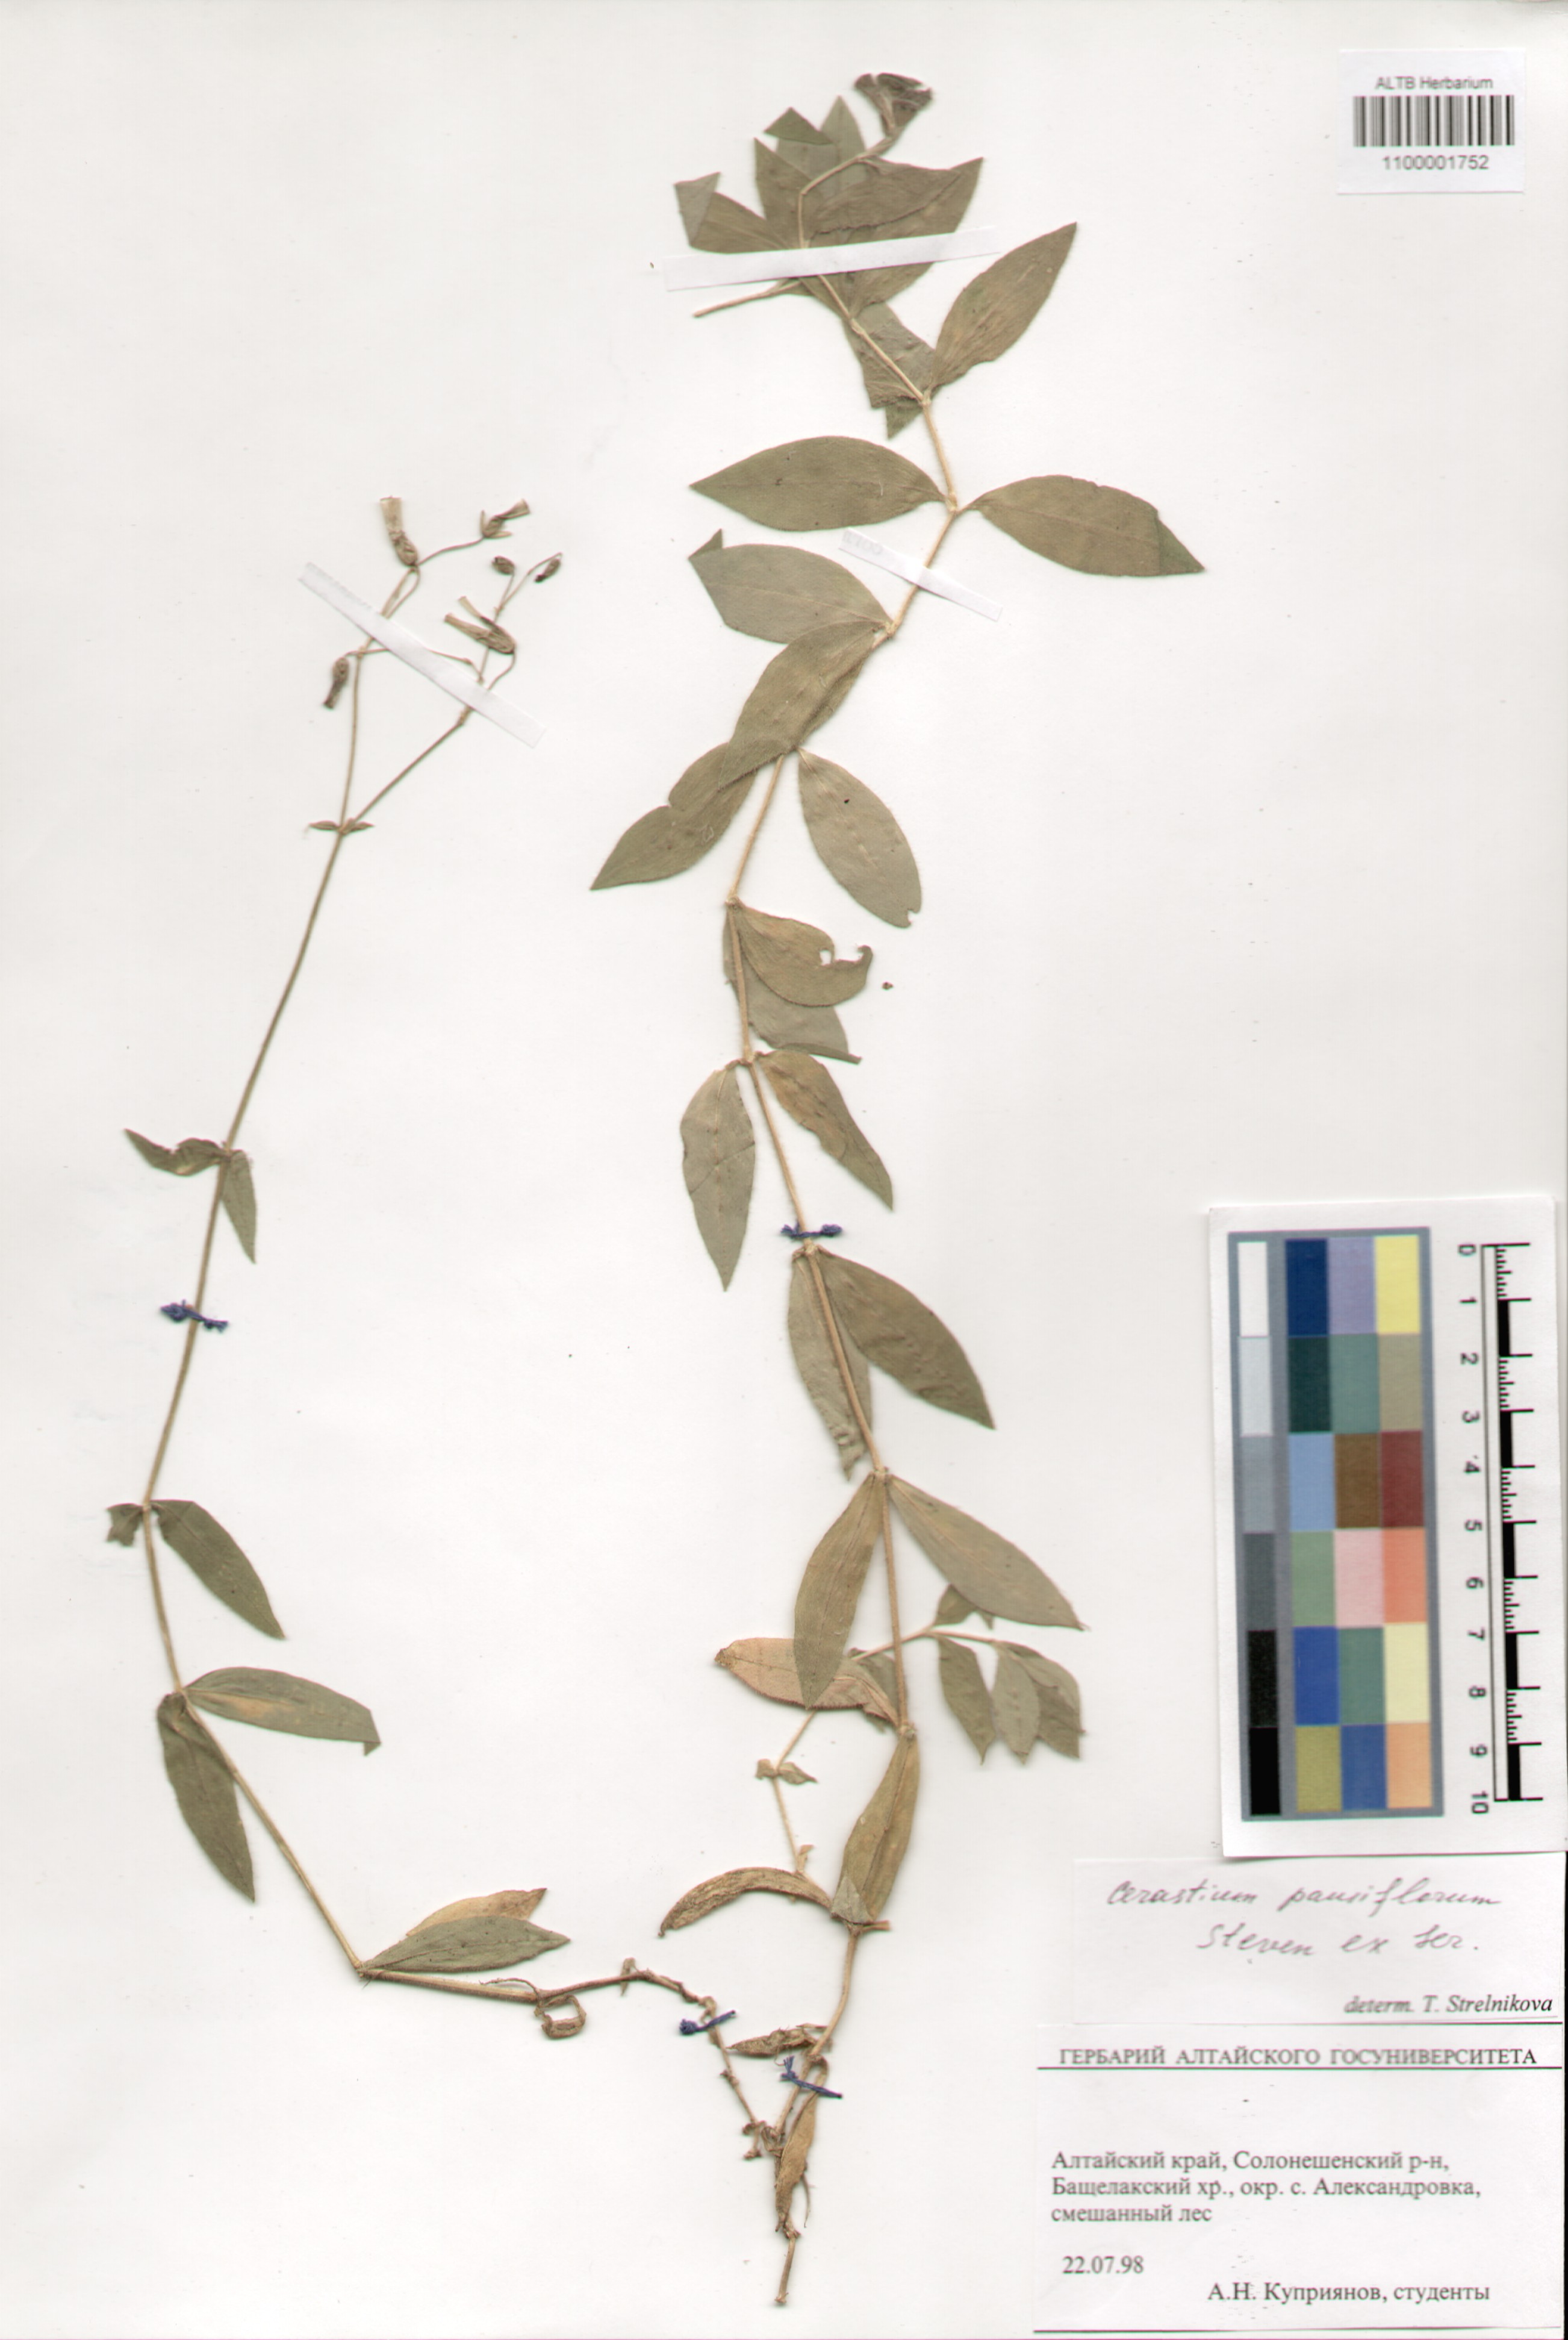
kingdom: Plantae
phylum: Tracheophyta
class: Magnoliopsida
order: Caryophyllales
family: Caryophyllaceae
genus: Cerastium
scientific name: Cerastium pauciflorum
